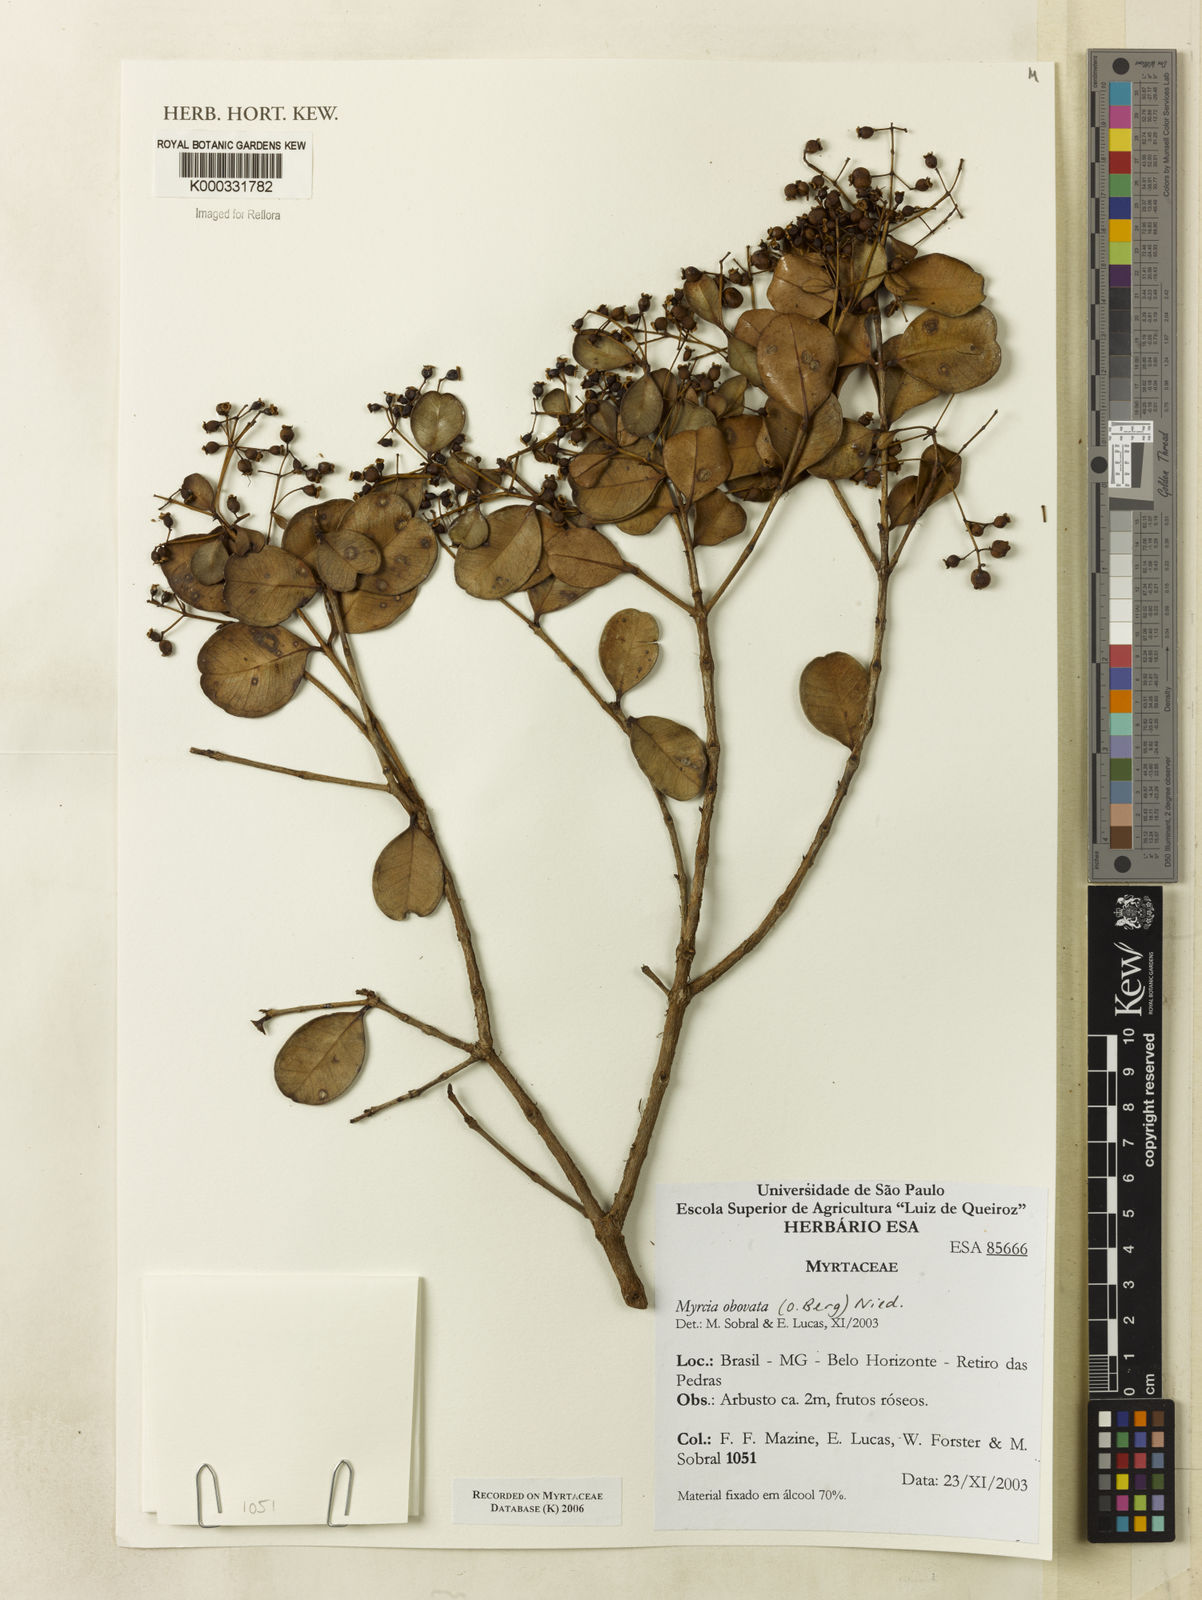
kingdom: Plantae
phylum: Tracheophyta
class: Magnoliopsida
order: Myrtales
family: Myrtaceae
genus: Myrcia
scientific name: Myrcia obovata
